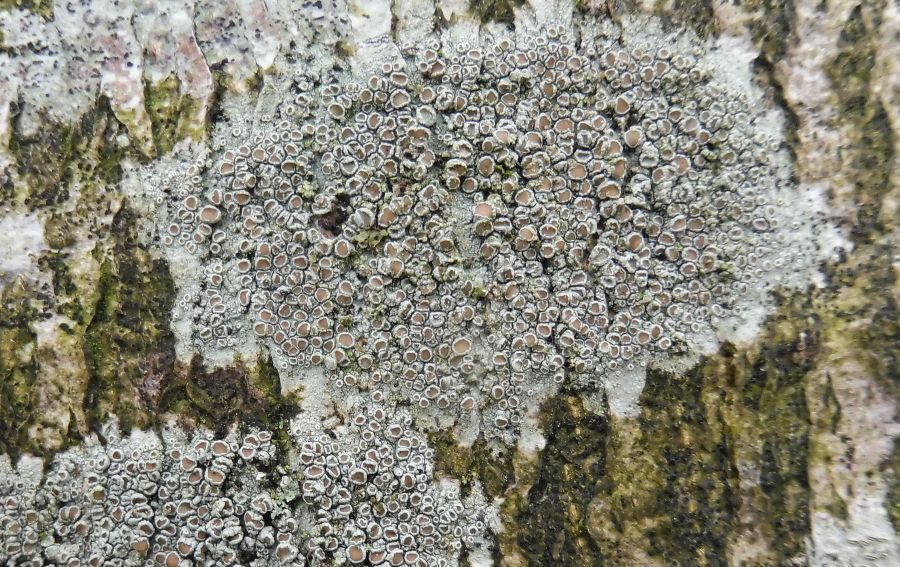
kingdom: Fungi
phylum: Ascomycota
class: Lecanoromycetes
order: Lecanorales
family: Lecanoraceae
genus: Lecanora
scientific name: Lecanora chlarotera
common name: brun kantskivelav
